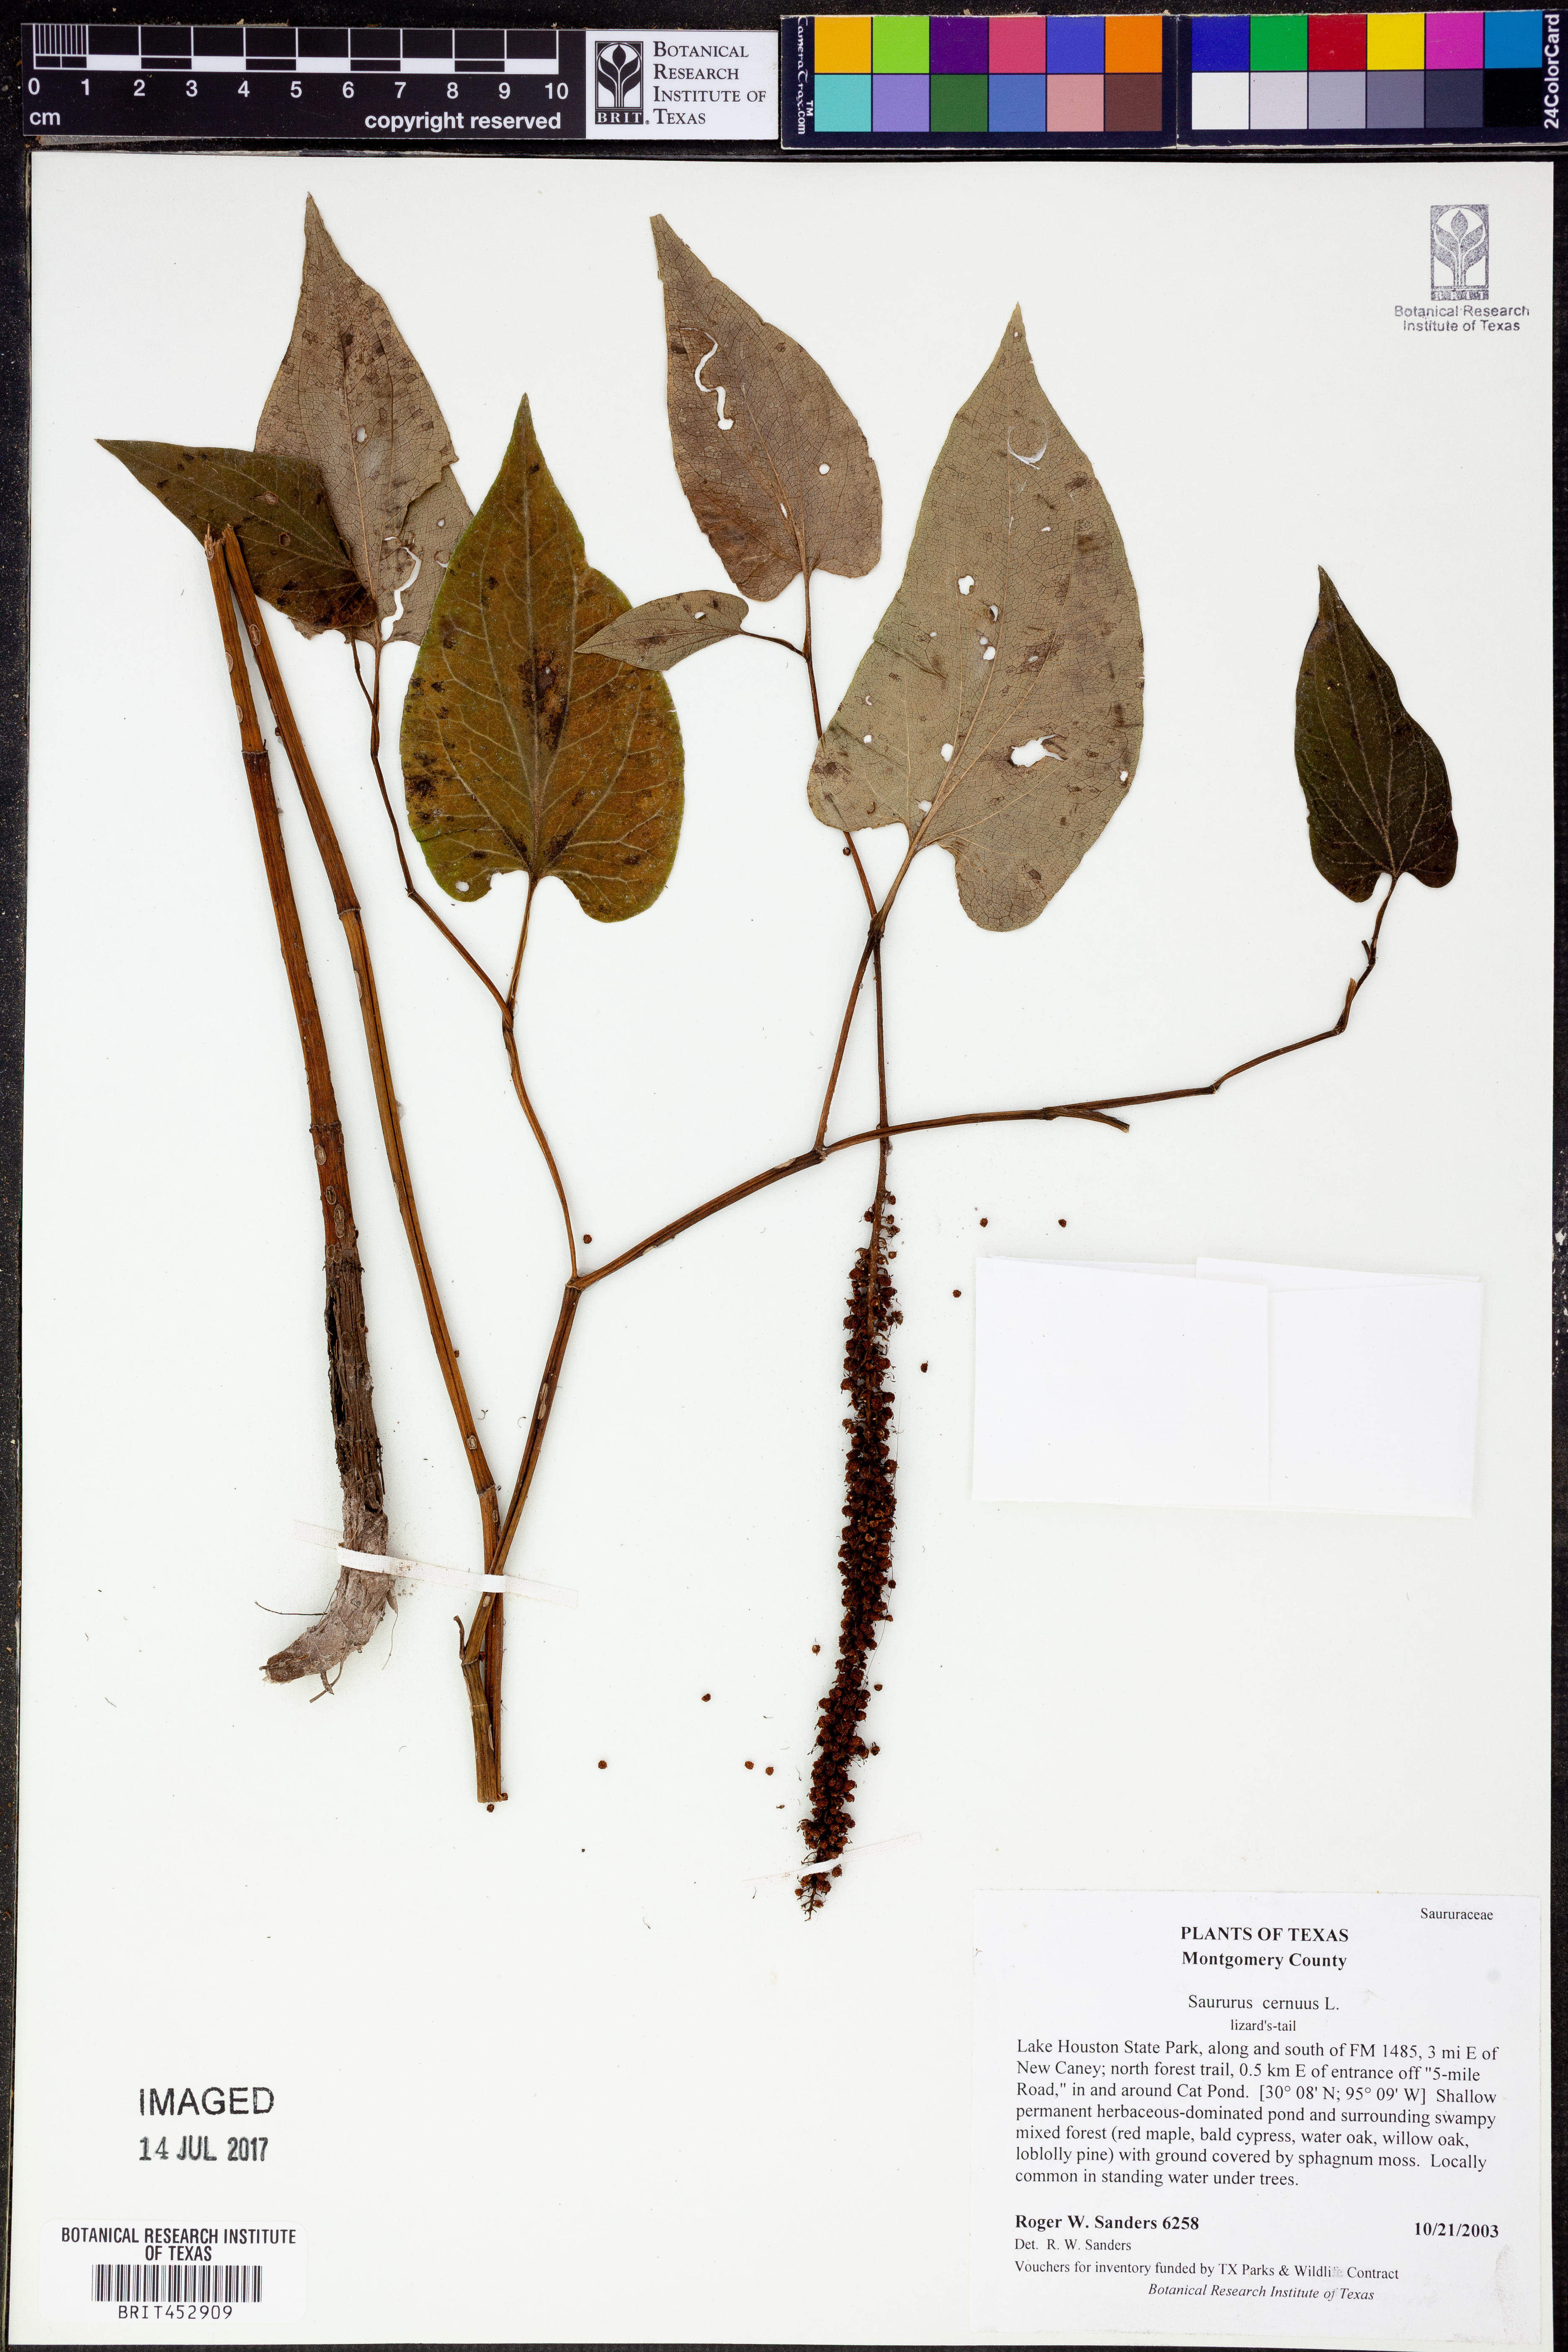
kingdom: Plantae
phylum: Tracheophyta
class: Magnoliopsida
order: Piperales
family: Saururaceae
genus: Saururus
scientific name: Saururus cernuus
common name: Lizard's-tail
